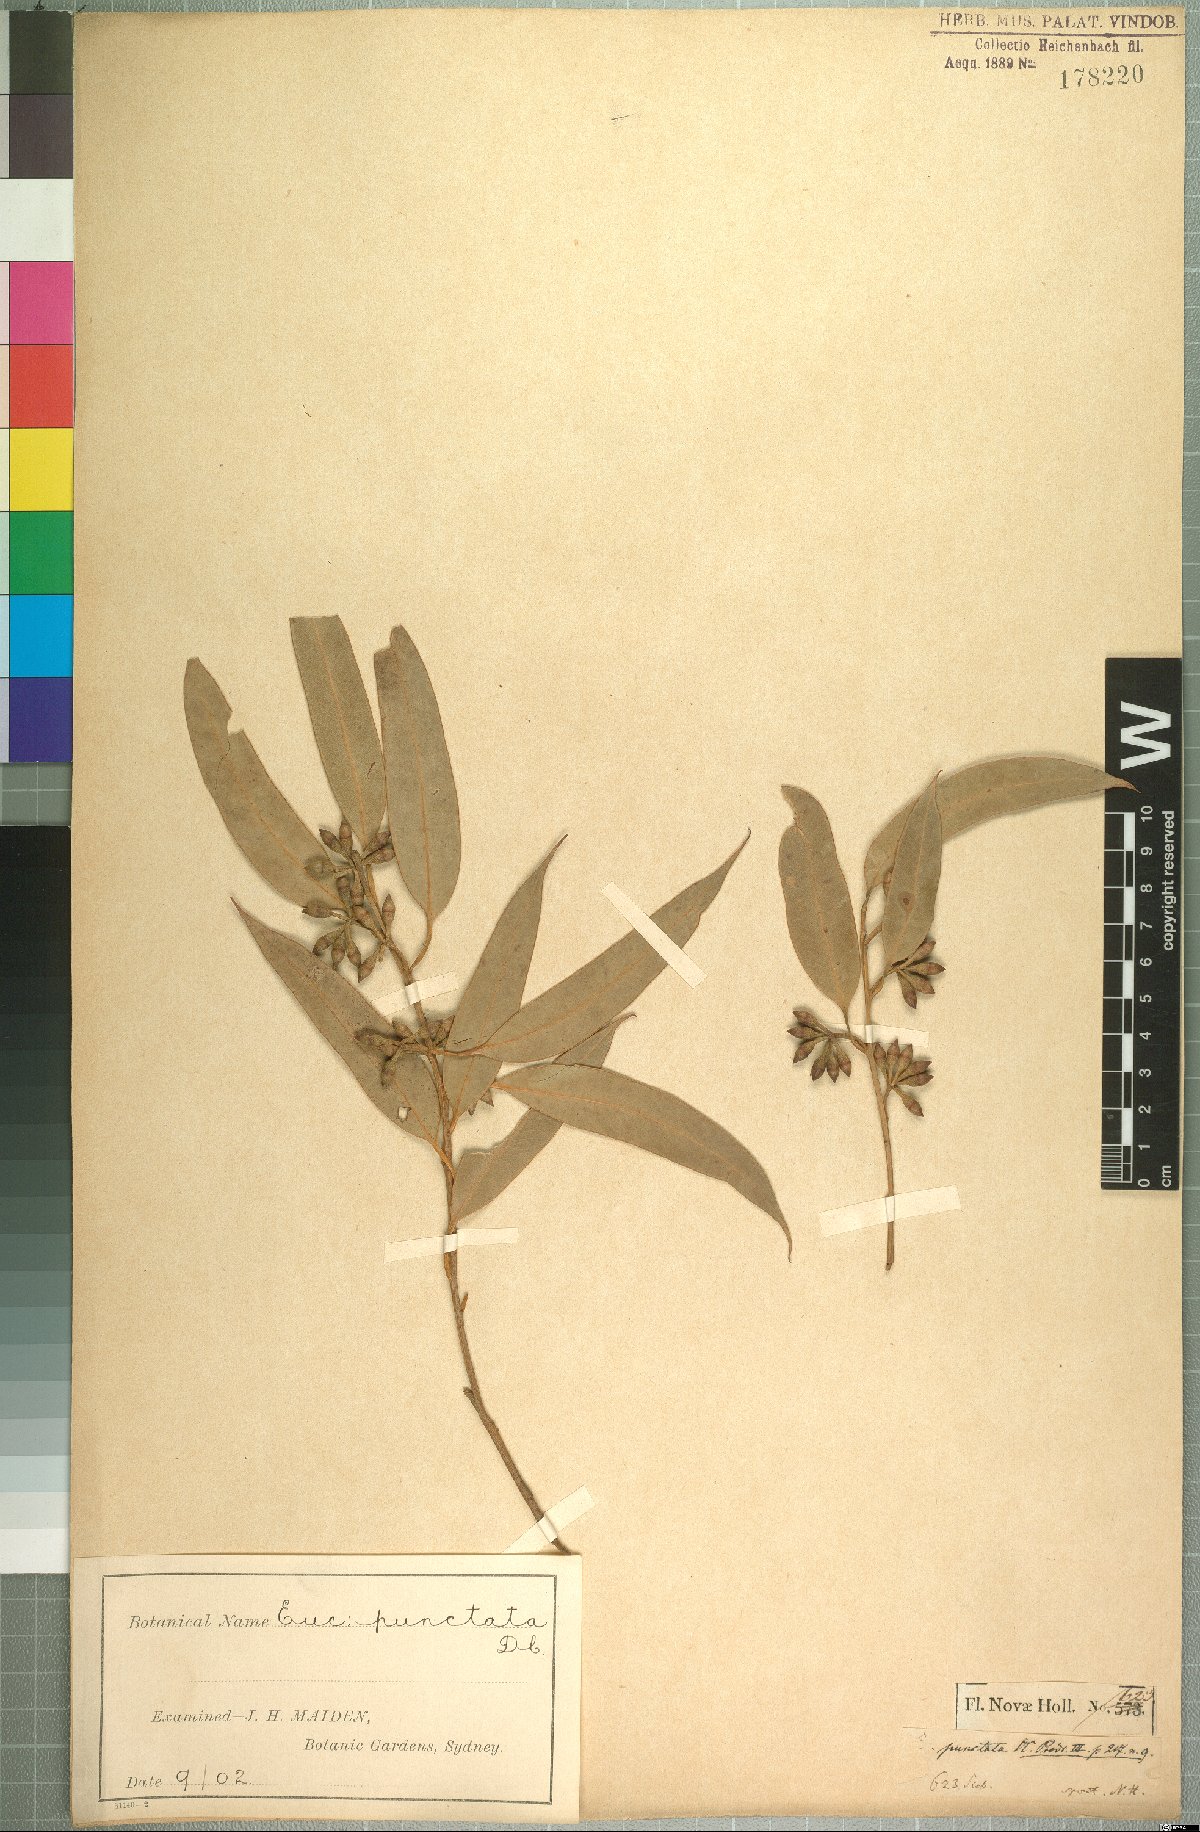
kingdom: Plantae
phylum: Tracheophyta
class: Magnoliopsida
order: Myrtales
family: Myrtaceae
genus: Eucalyptus
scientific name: Eucalyptus punctata
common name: Gray gum
